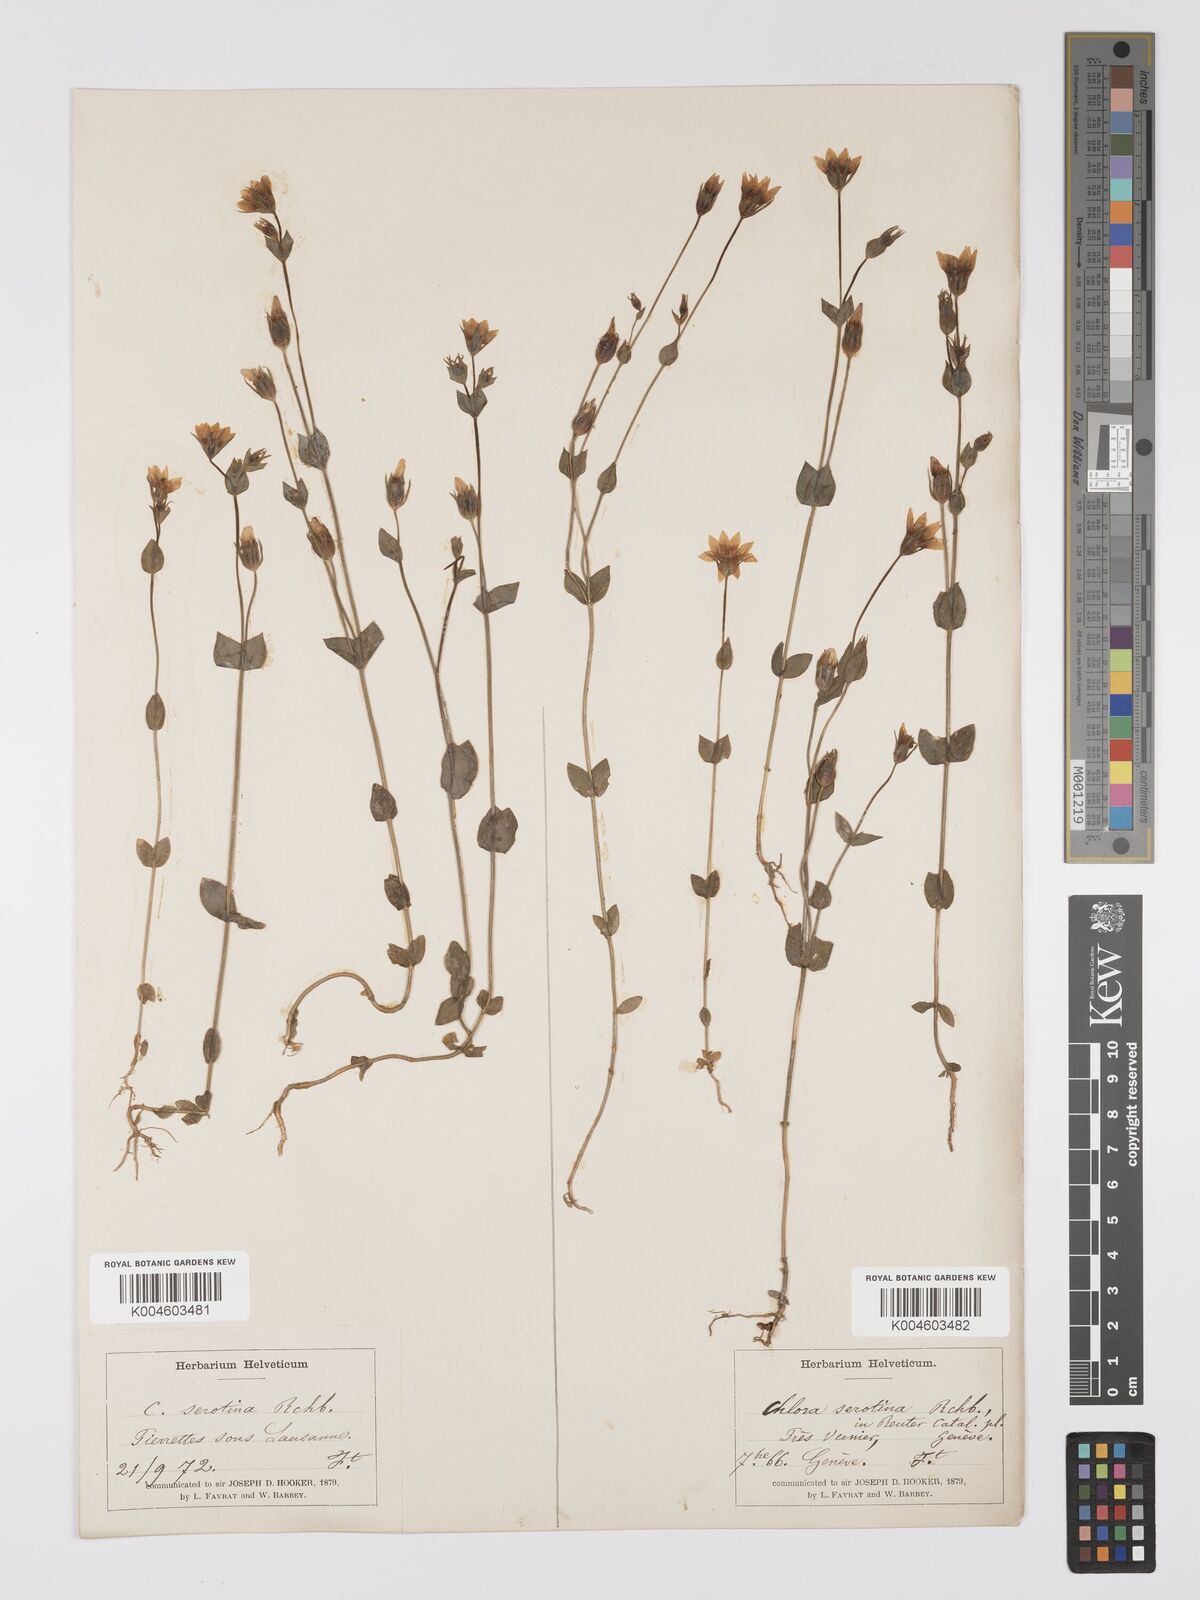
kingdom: Plantae
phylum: Tracheophyta
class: Magnoliopsida
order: Gentianales
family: Gentianaceae
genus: Blackstonia
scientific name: Blackstonia acuminata
